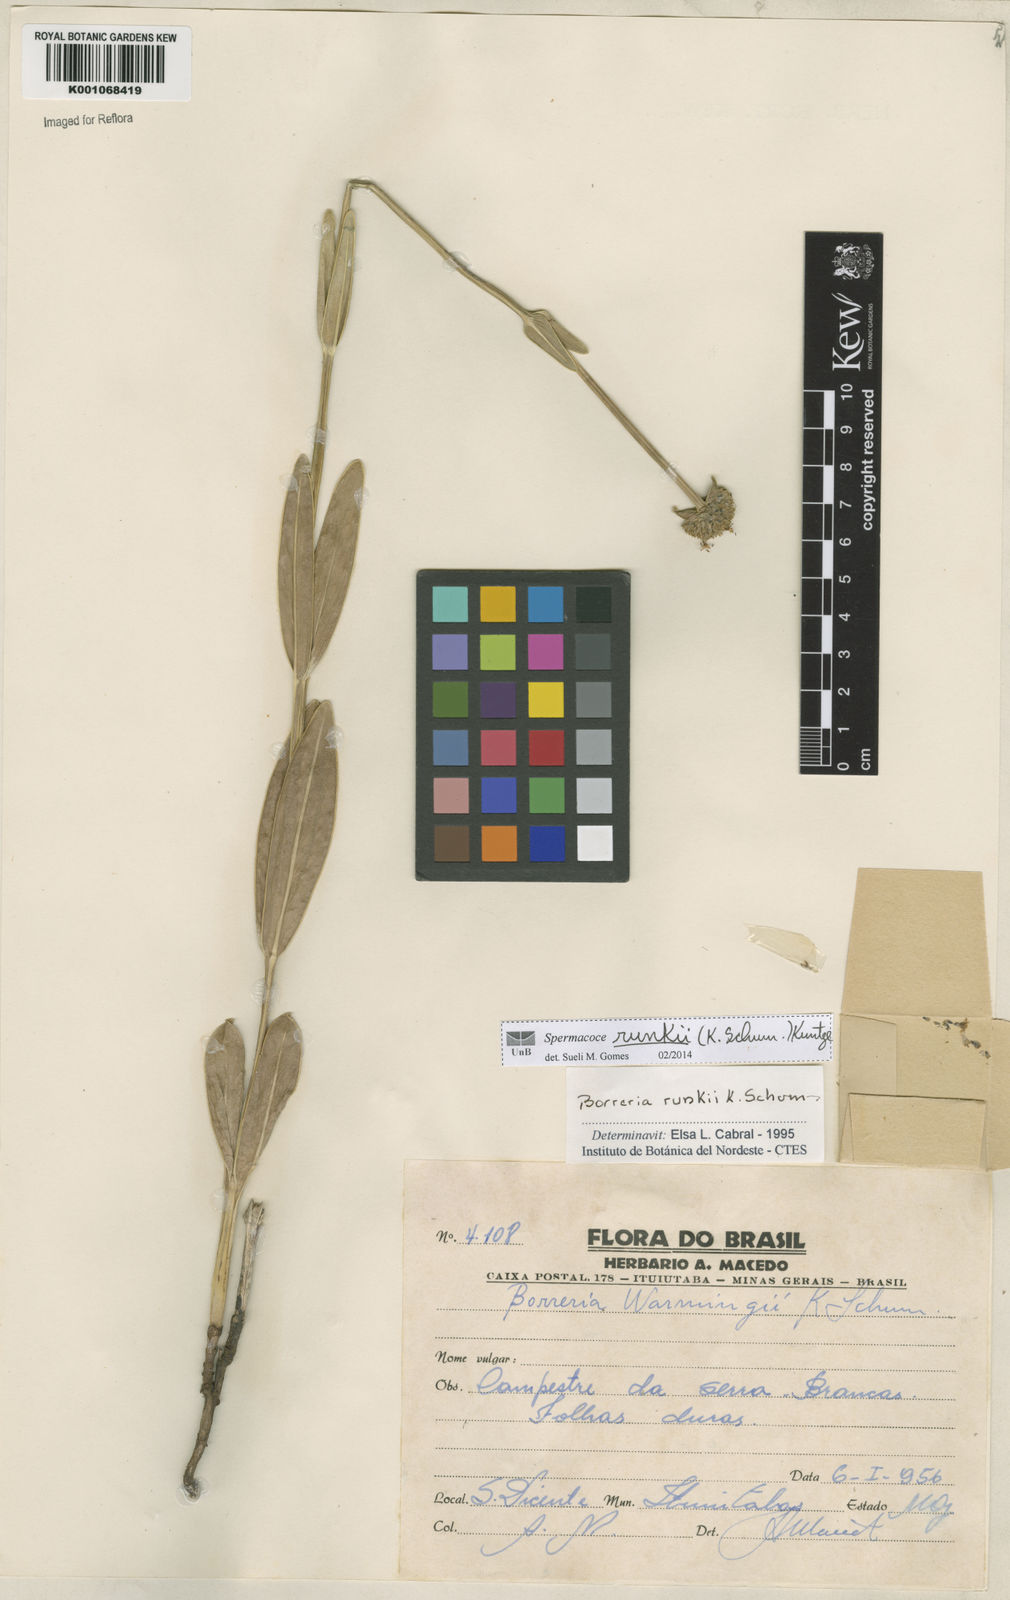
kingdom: Plantae
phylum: Tracheophyta
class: Magnoliopsida
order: Gentianales
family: Rubiaceae
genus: Spermacoce
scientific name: Spermacoce runkii
